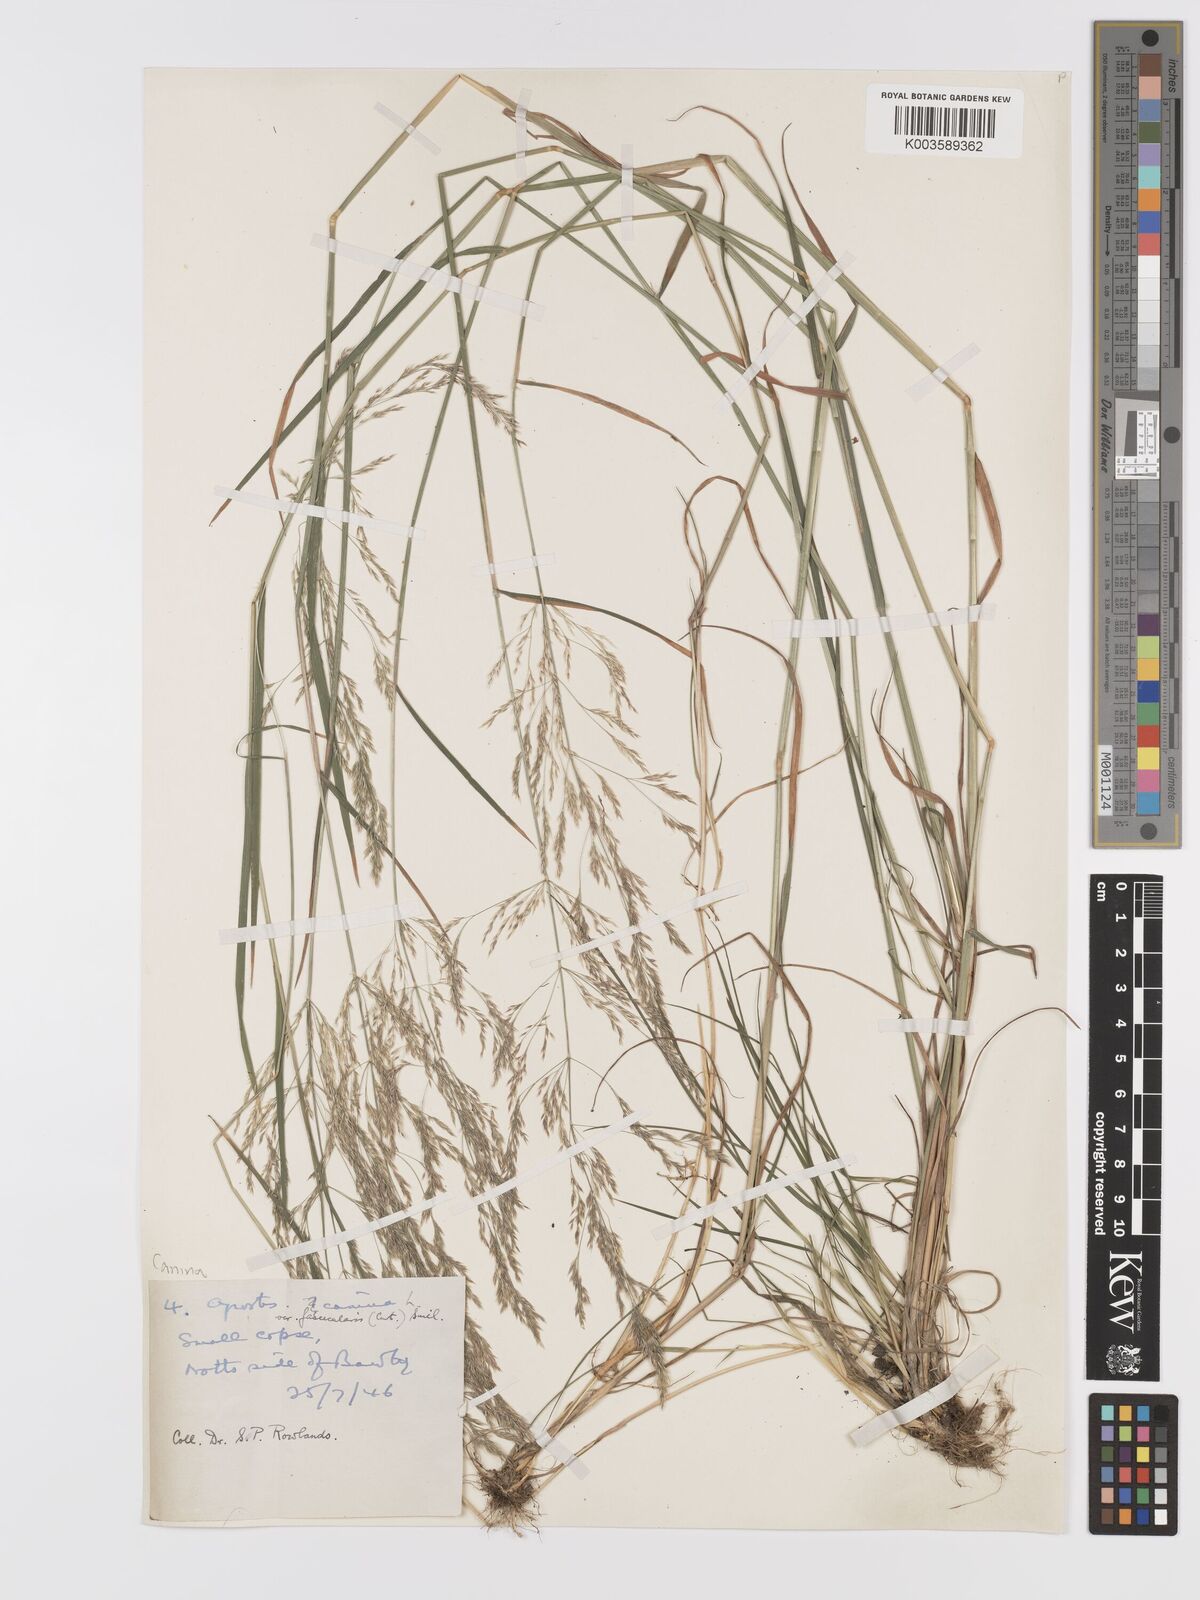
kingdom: Plantae
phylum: Tracheophyta
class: Liliopsida
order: Poales
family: Poaceae
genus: Agrostis
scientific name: Agrostis canina
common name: Velvet bent
